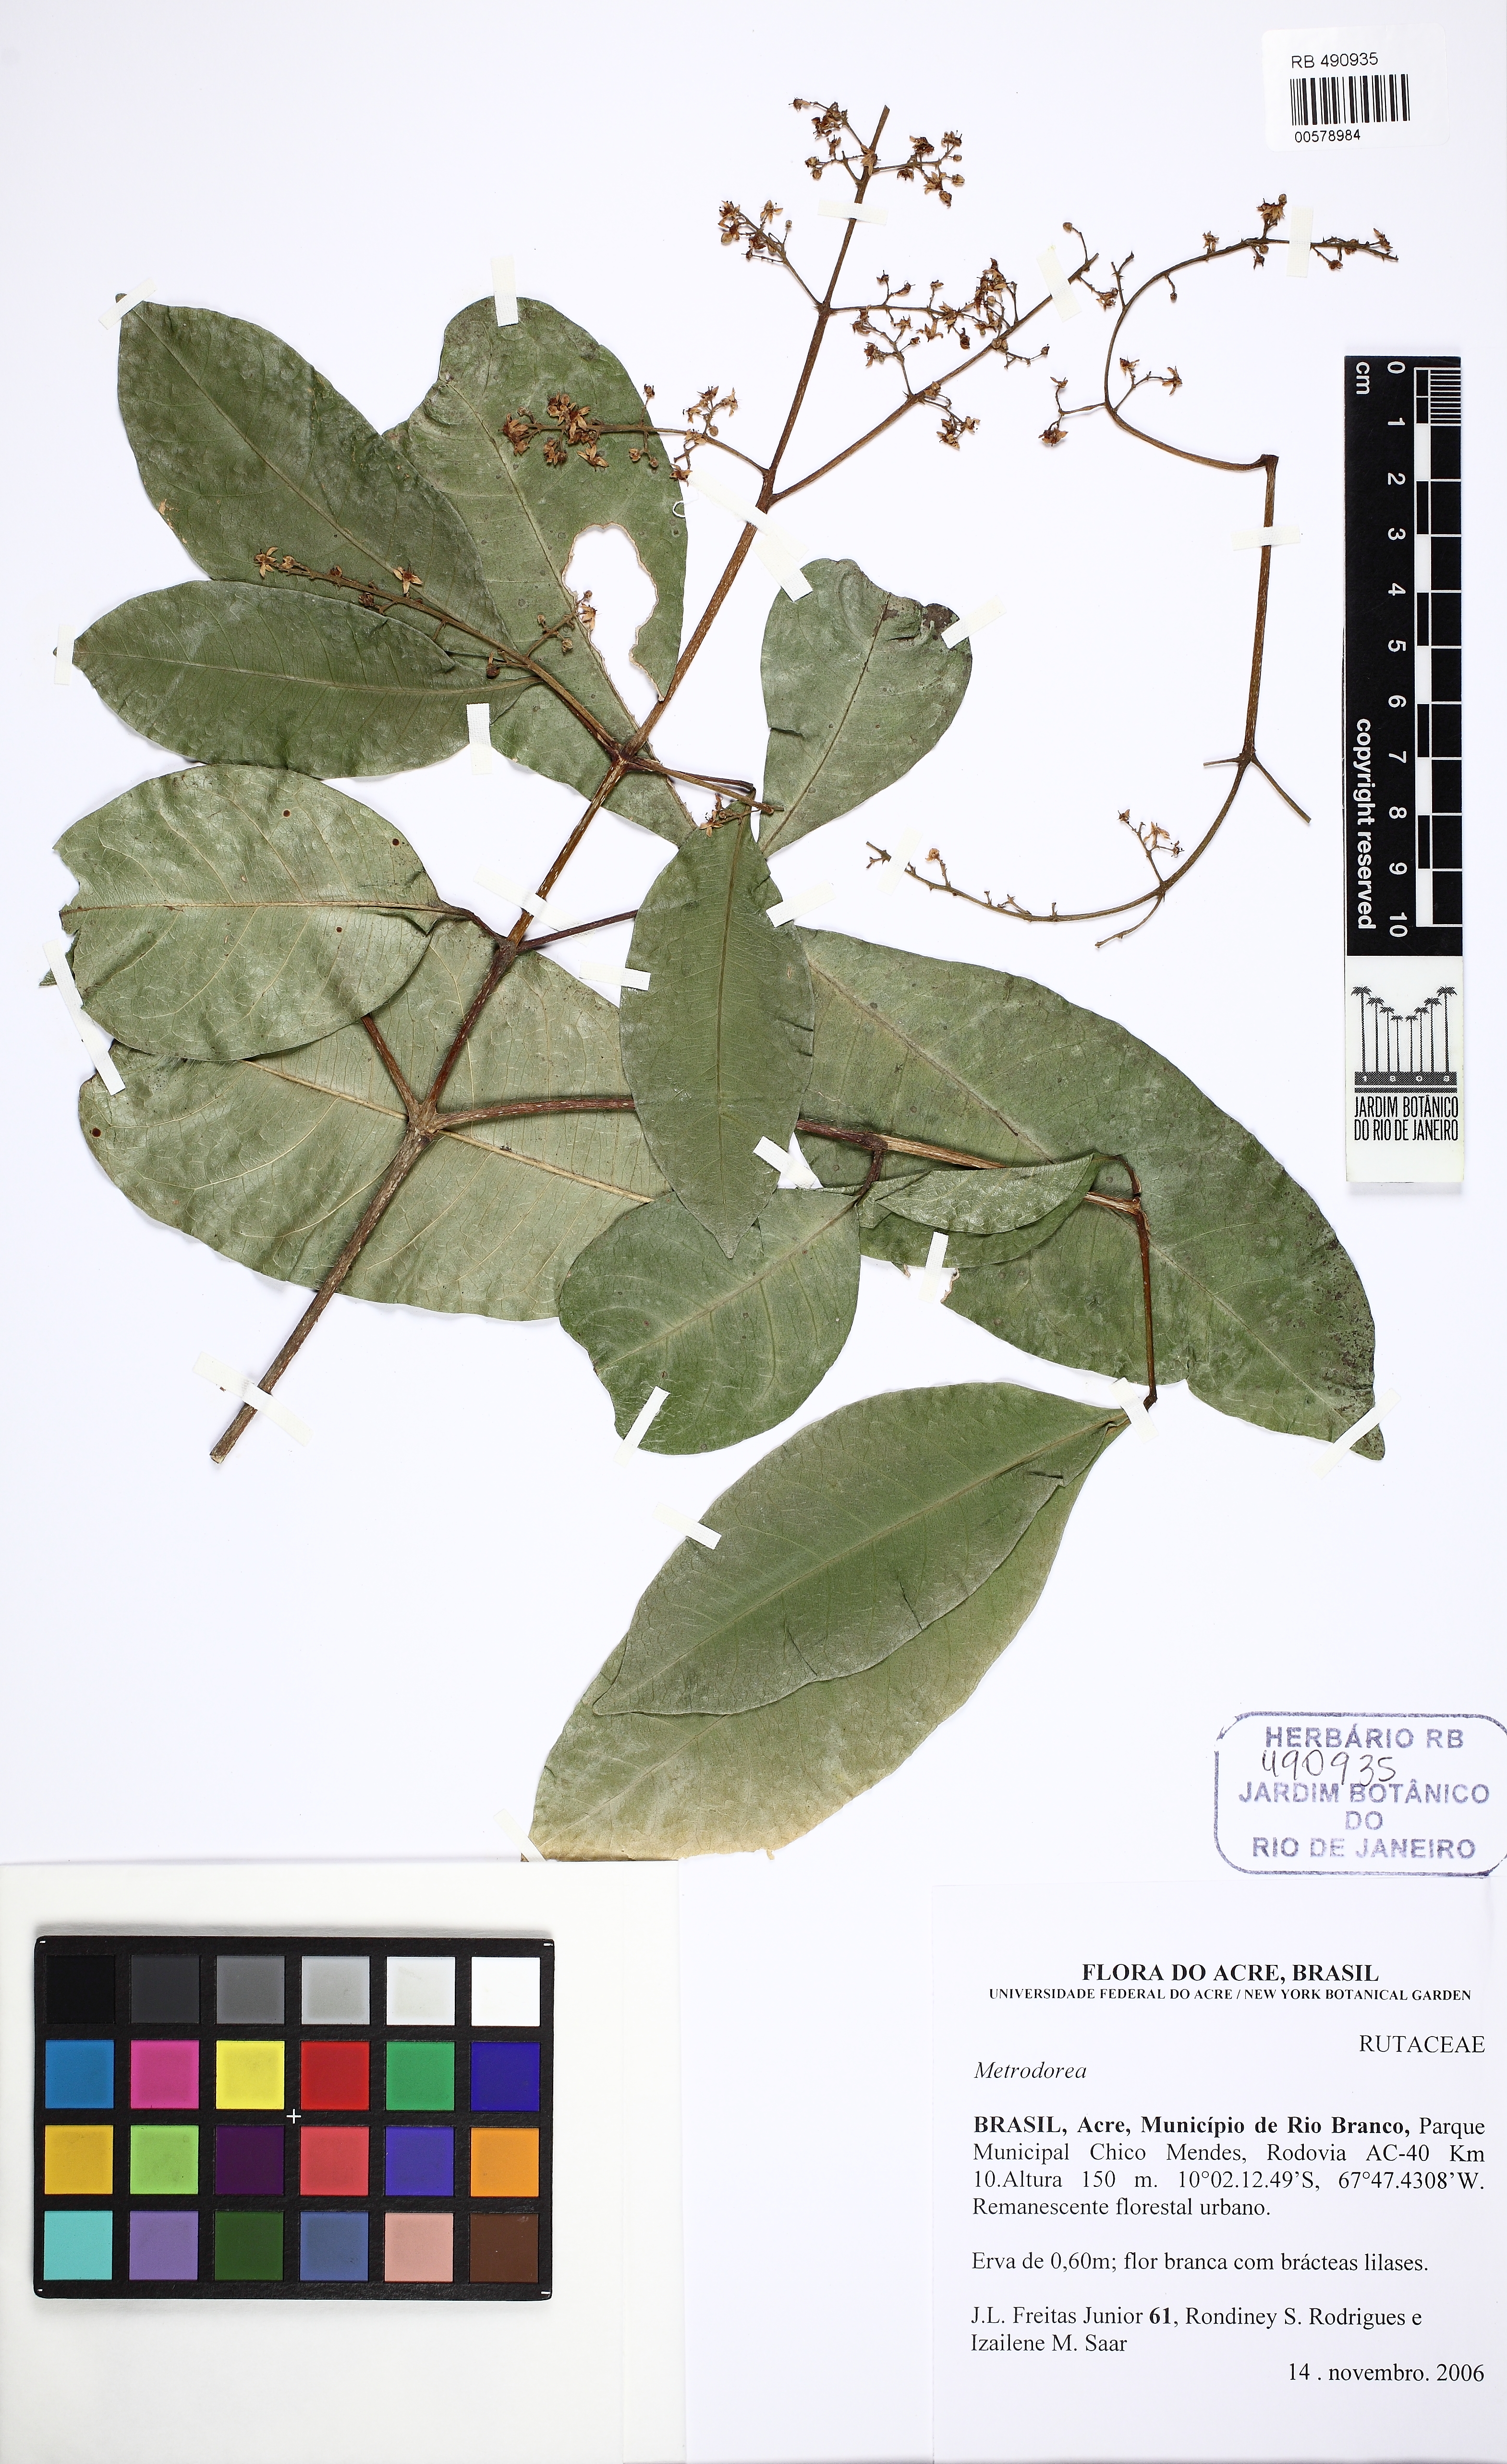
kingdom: Plantae
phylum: Tracheophyta
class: Magnoliopsida
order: Sapindales
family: Rutaceae
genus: Metrodorea
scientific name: Metrodorea flavida
